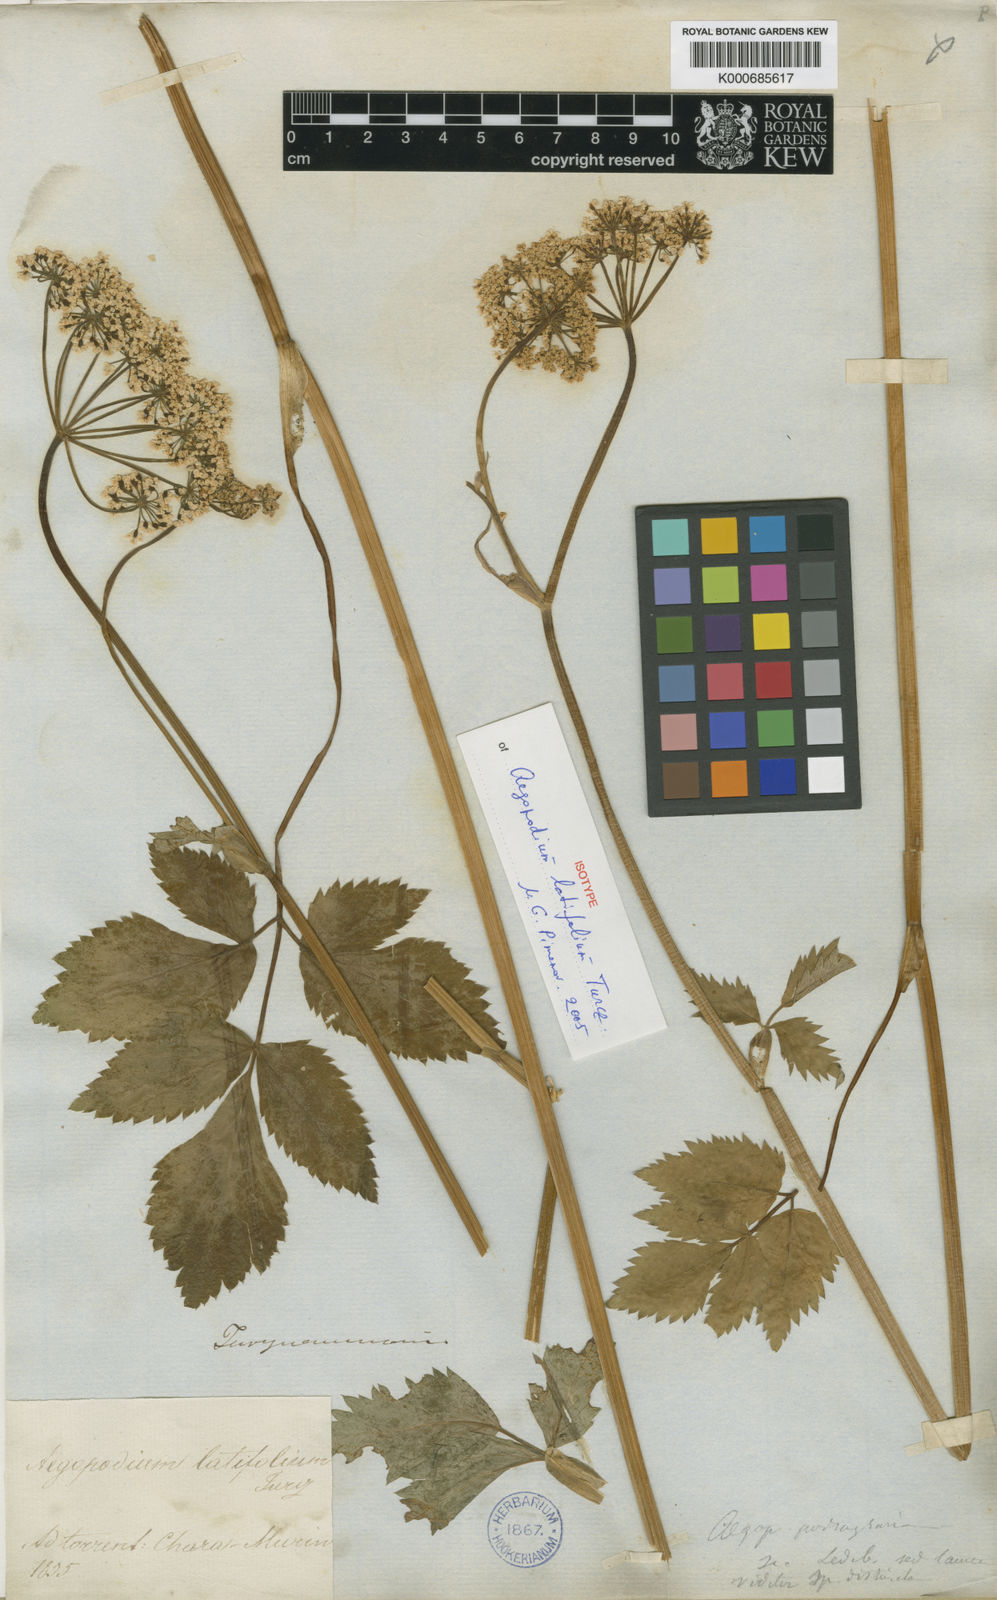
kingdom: Plantae
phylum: Tracheophyta
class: Magnoliopsida
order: Apiales
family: Apiaceae
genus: Aegopodium
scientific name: Aegopodium podagraria
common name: Ground-elder
